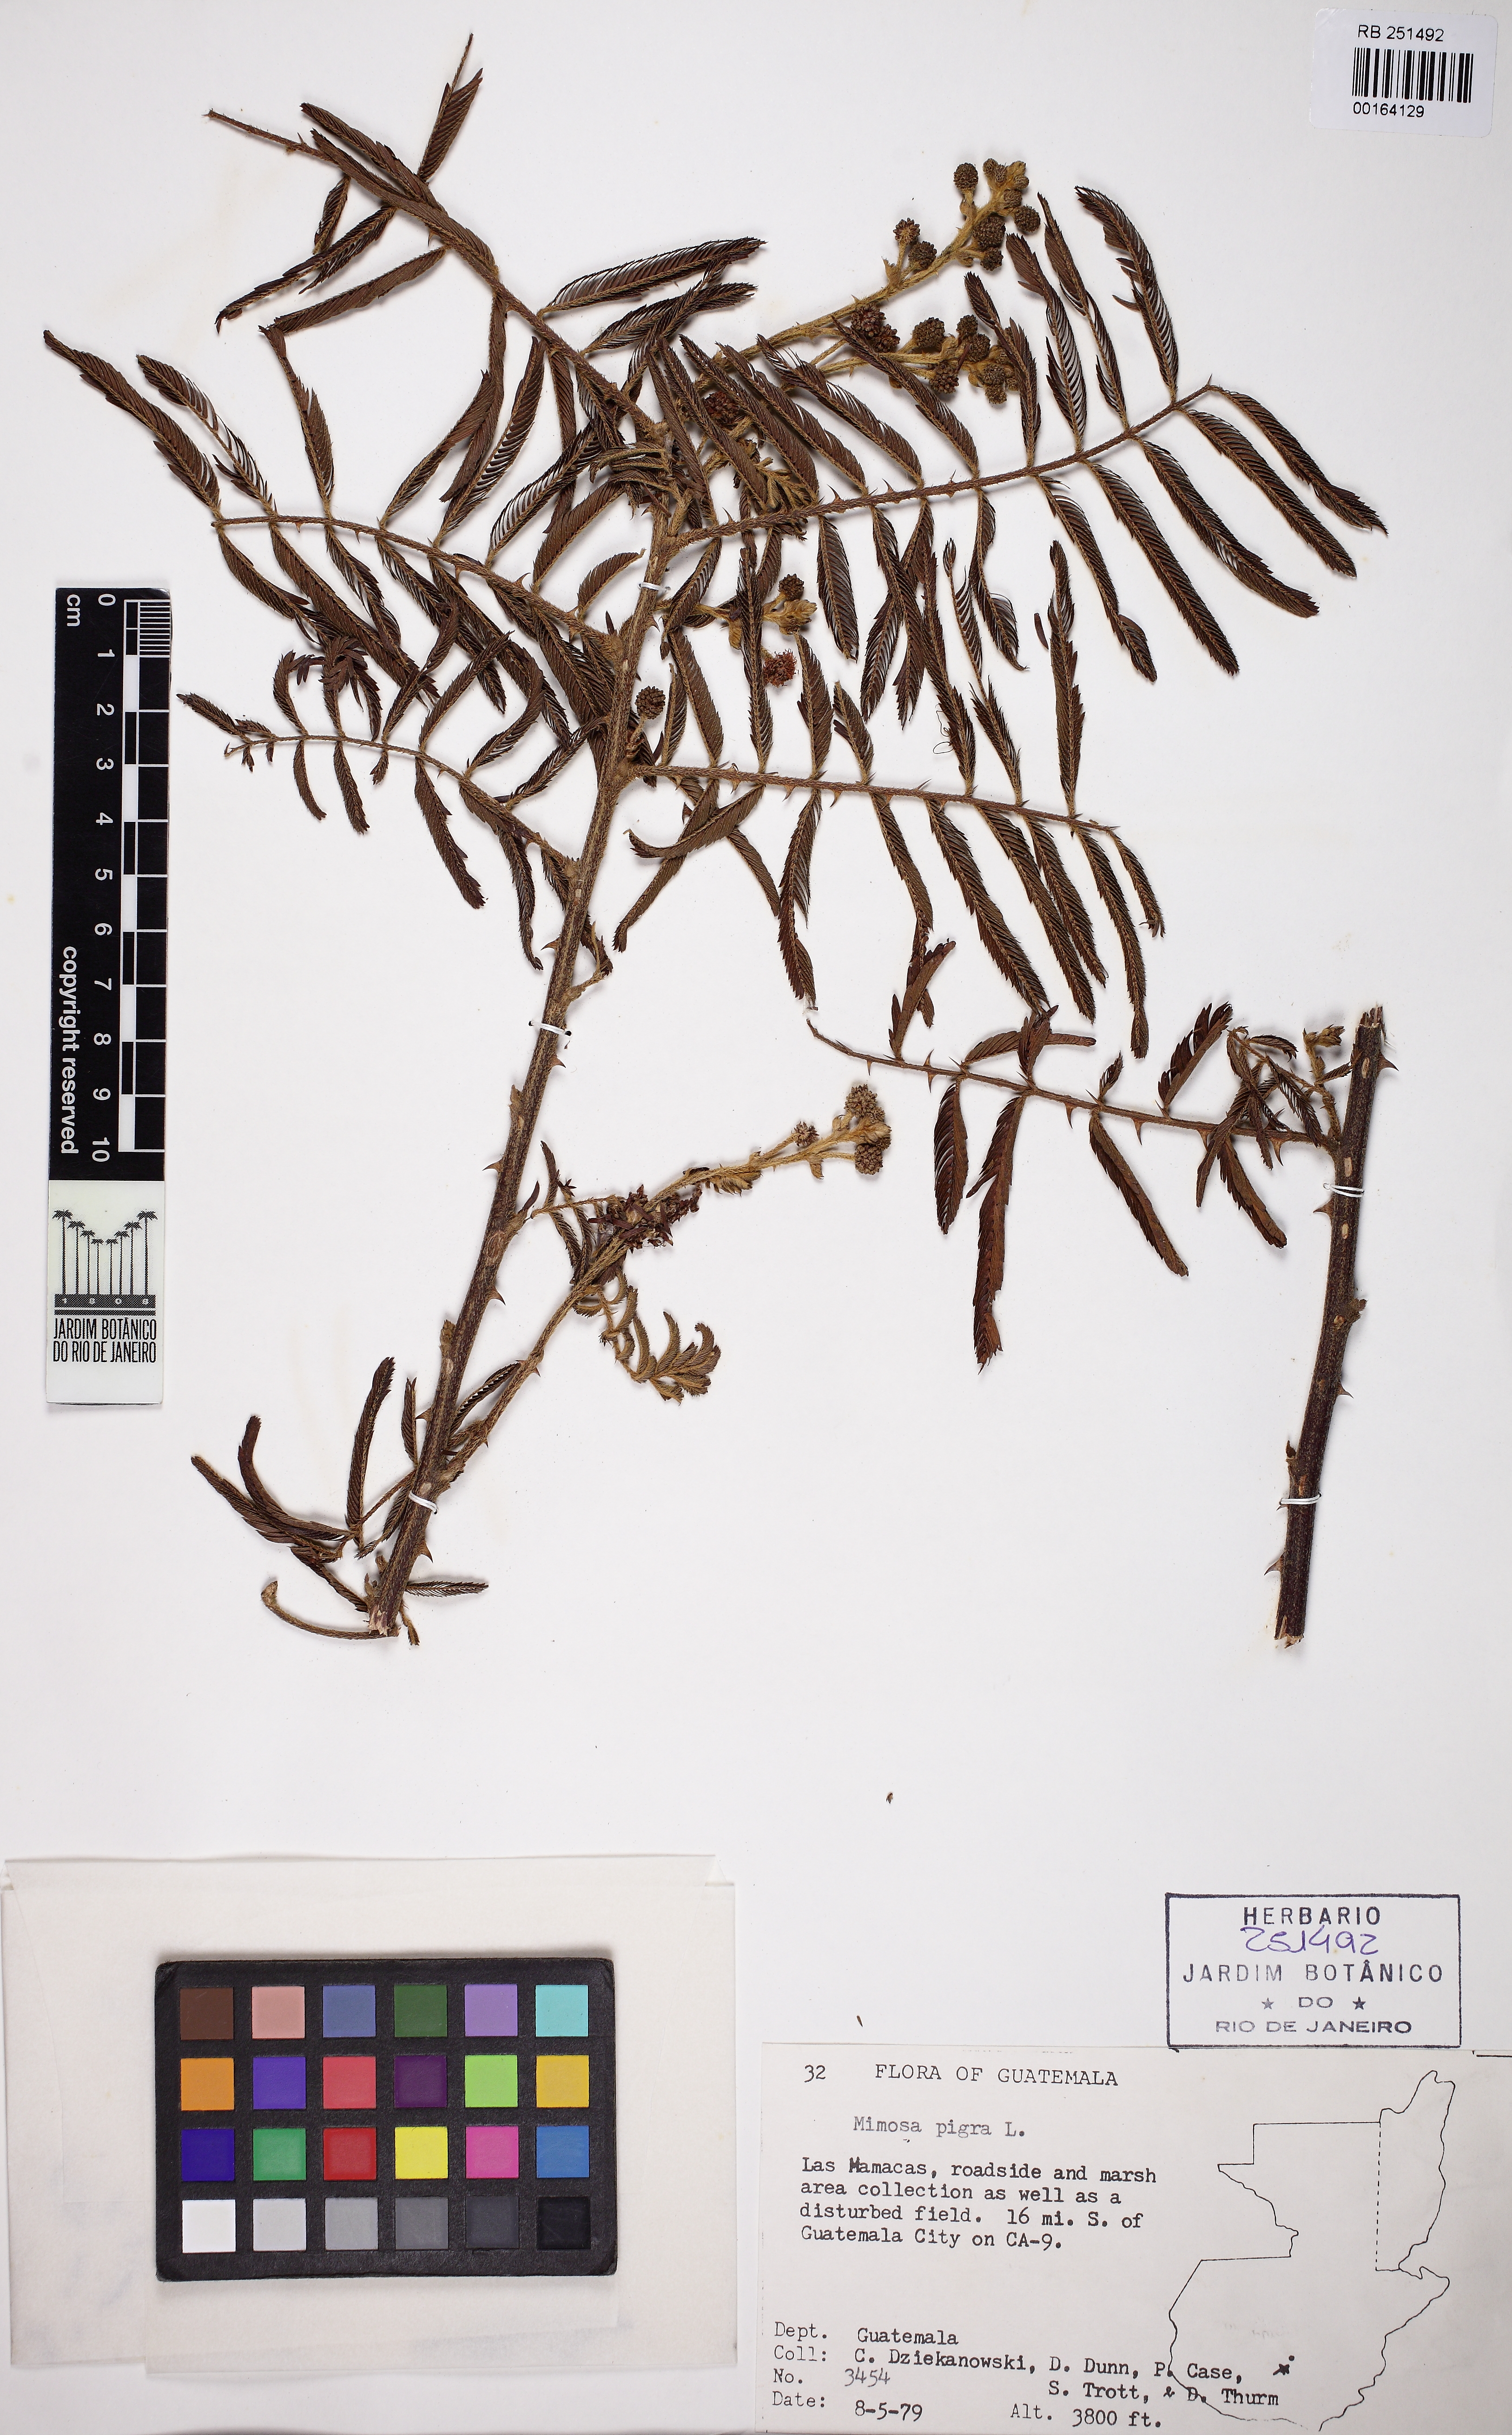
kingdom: Plantae
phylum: Tracheophyta
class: Magnoliopsida
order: Fabales
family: Fabaceae
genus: Mimosa
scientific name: Mimosa pigra
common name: Black mimosa
